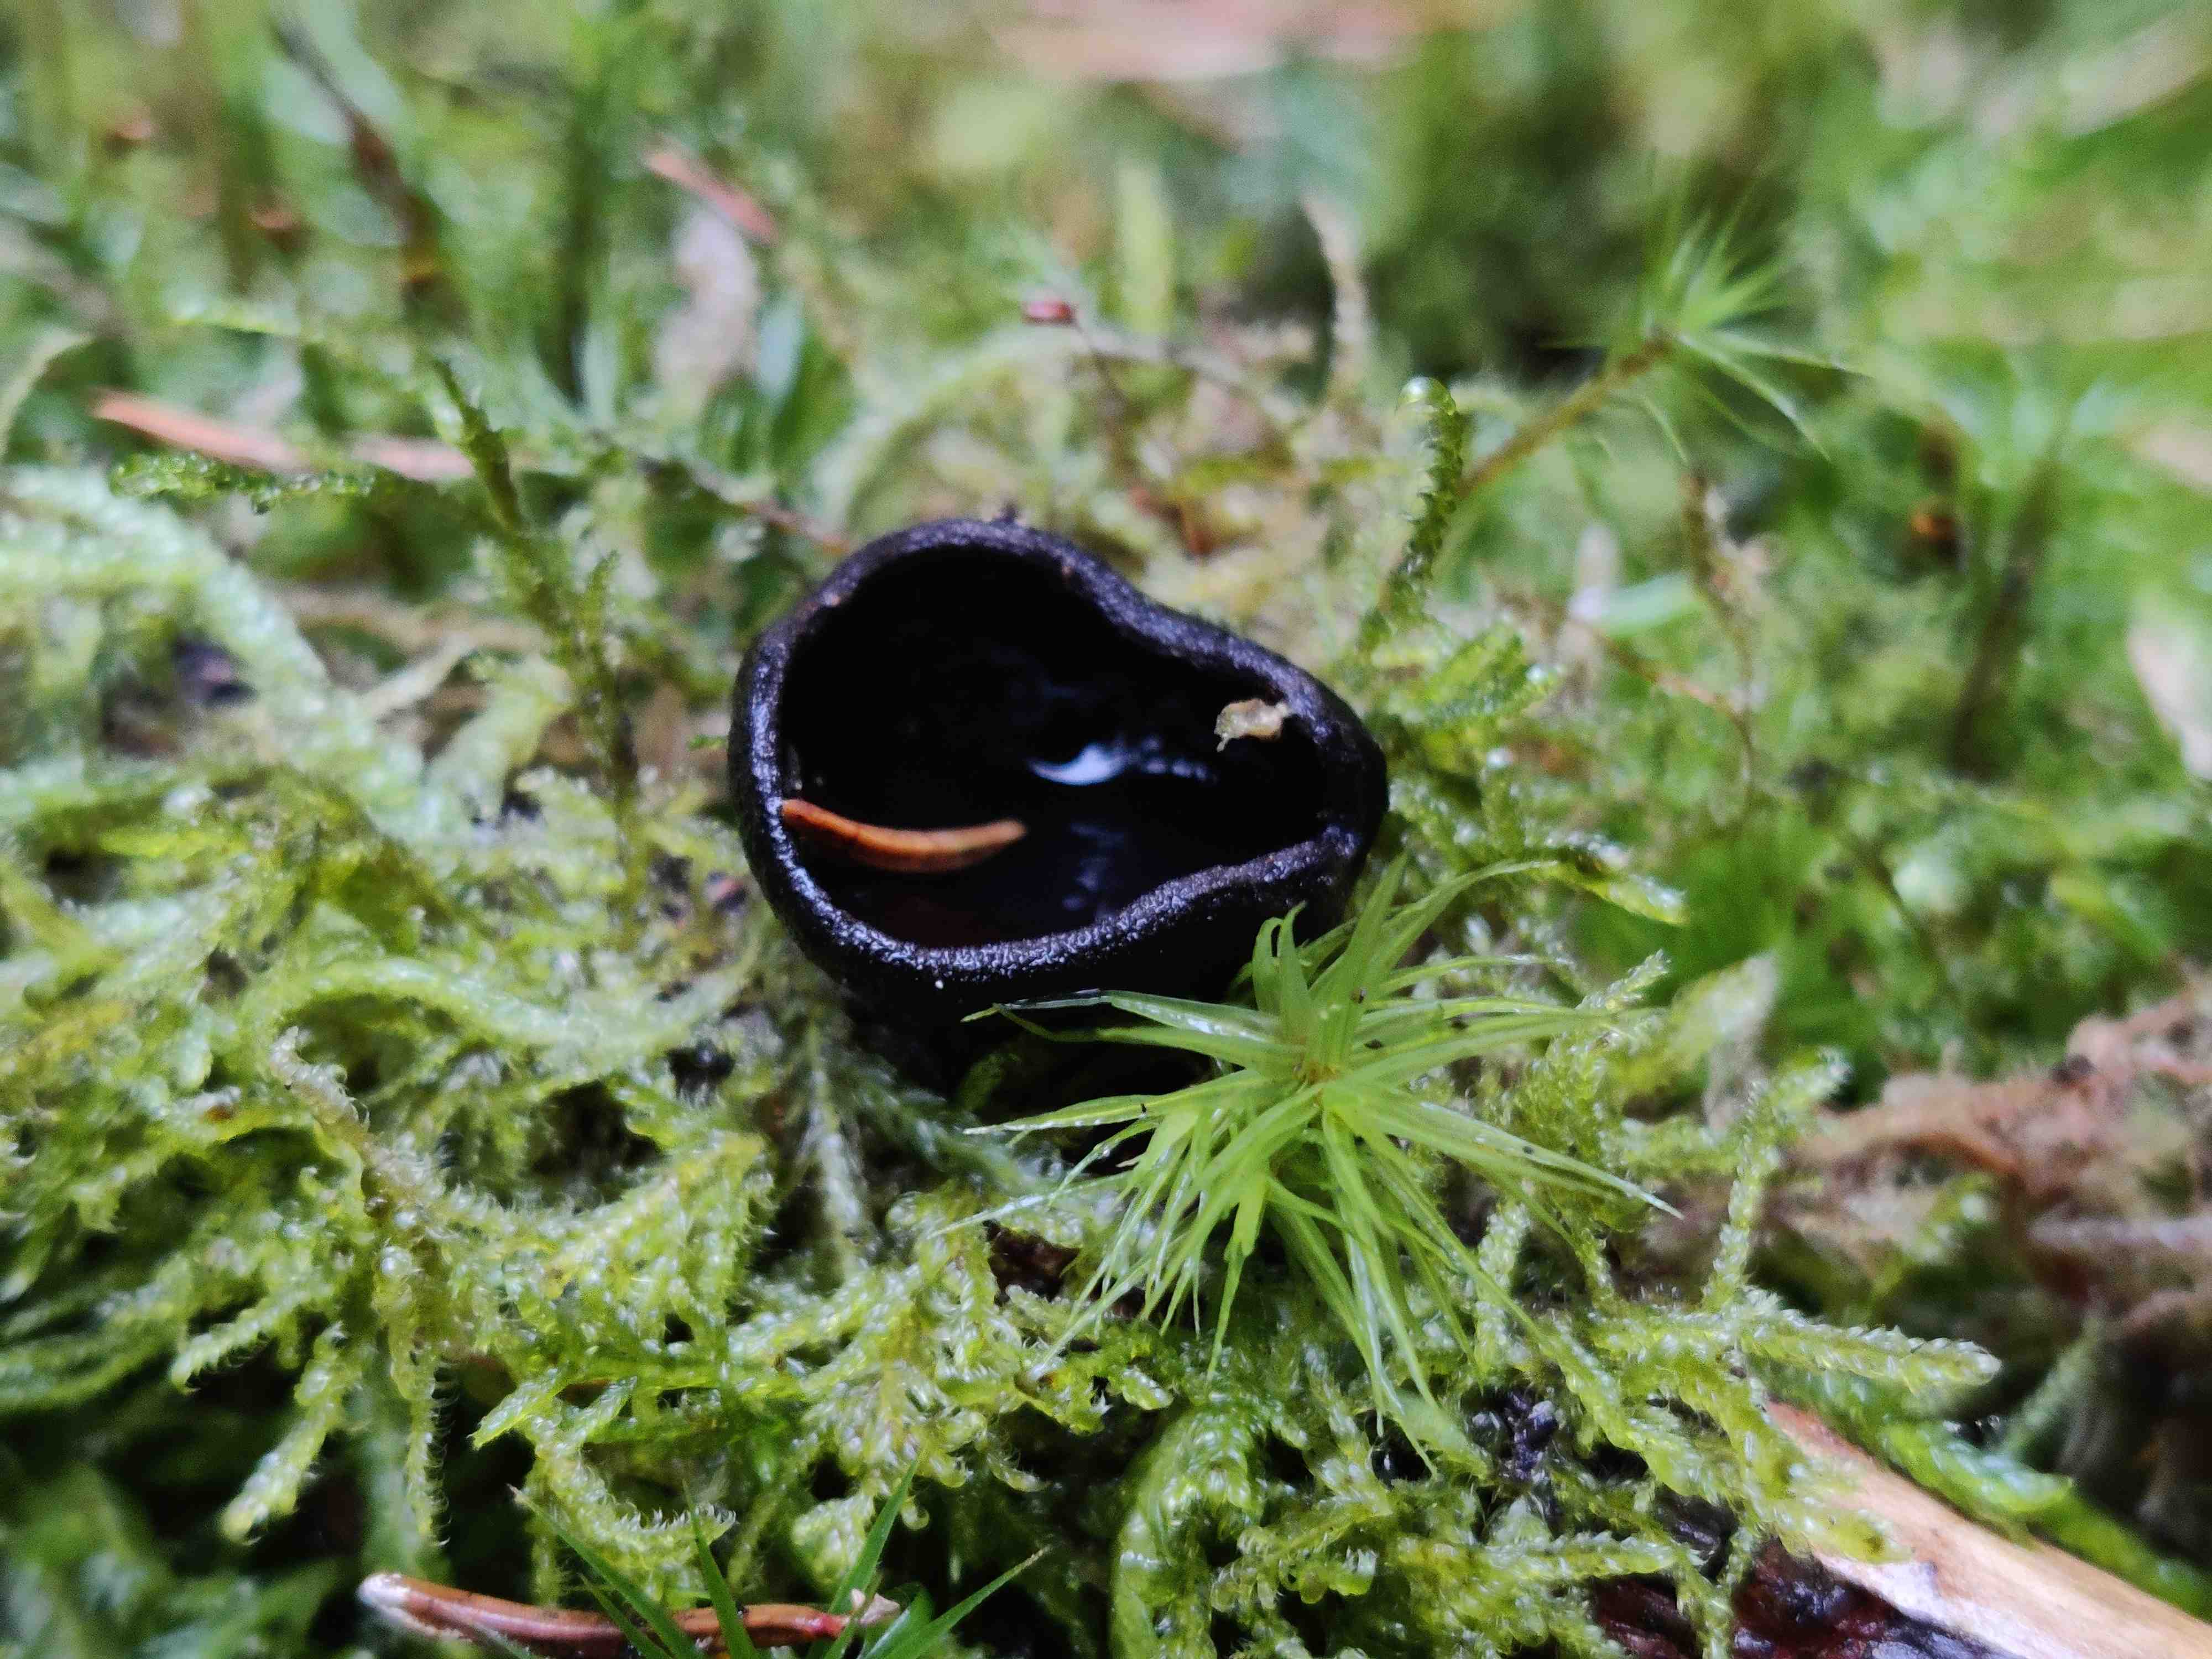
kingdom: Fungi
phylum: Ascomycota
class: Pezizomycetes
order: Pezizales
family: Sarcosomataceae
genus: Pseudoplectania
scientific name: Pseudoplectania nigrella
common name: almindelig sortbæger
